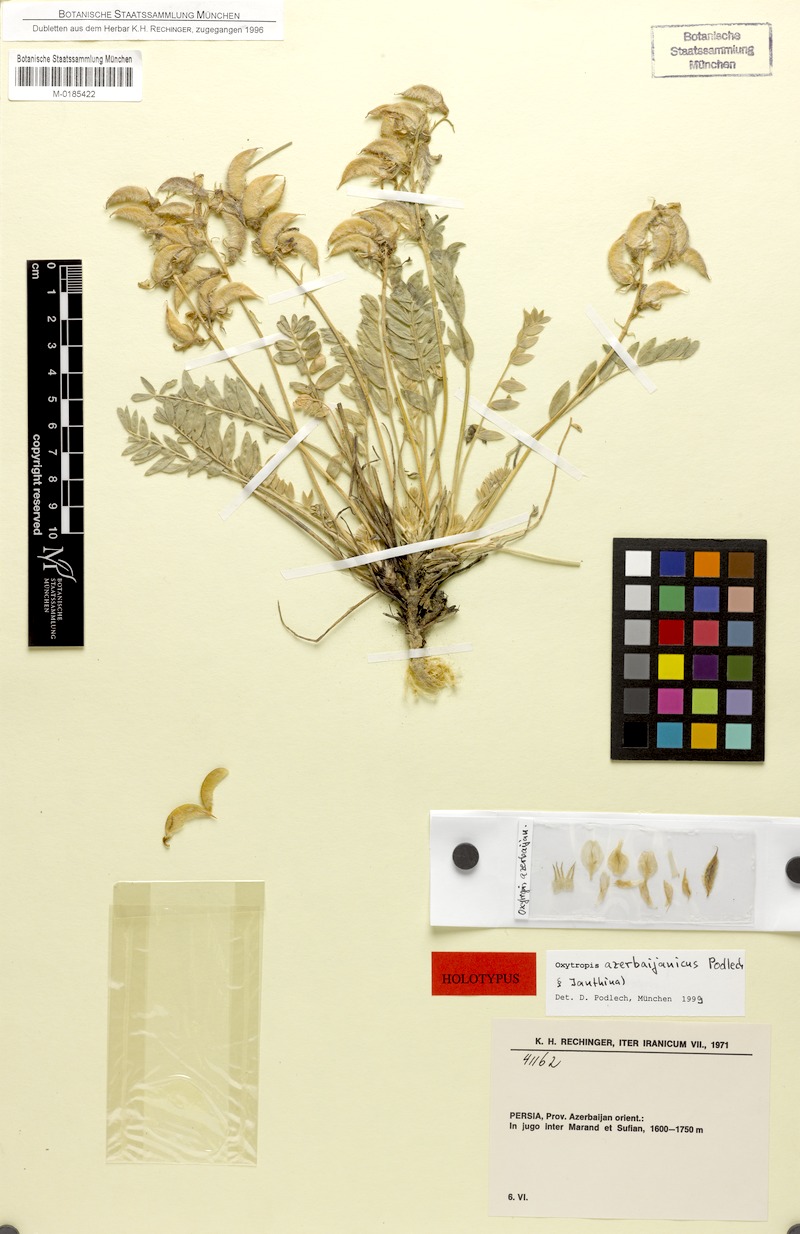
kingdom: Plantae
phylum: Tracheophyta
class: Magnoliopsida
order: Fabales
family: Fabaceae
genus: Oxytropis
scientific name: Oxytropis azerbaijanica
